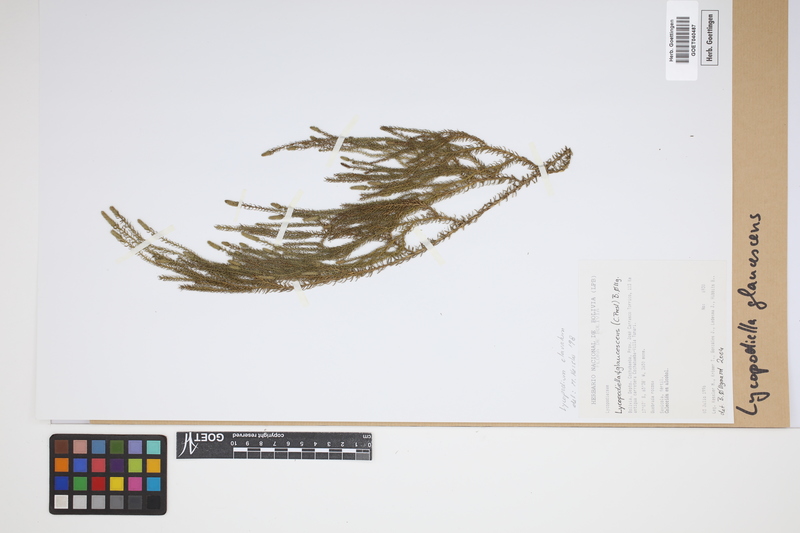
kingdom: Plantae
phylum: Tracheophyta
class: Lycopodiopsida
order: Lycopodiales
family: Lycopodiaceae
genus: Palhinhaea
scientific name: Palhinhaea glaucescens
